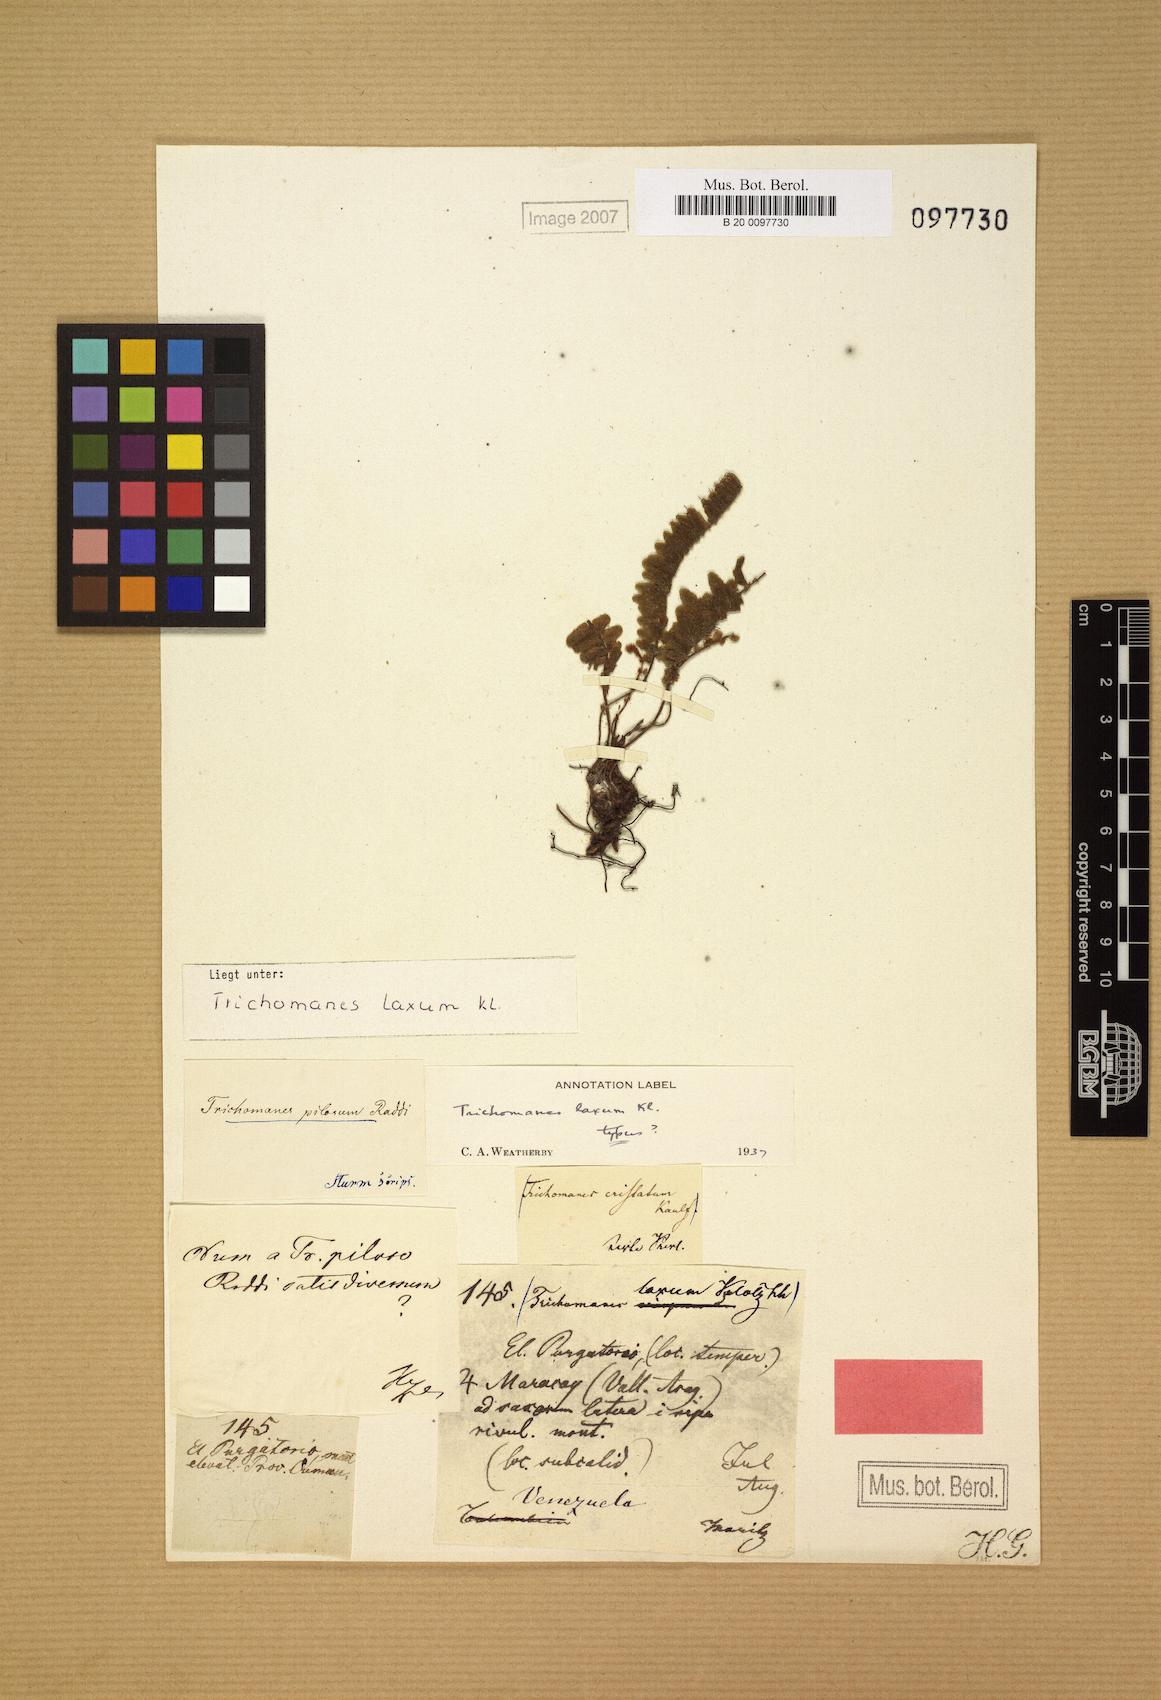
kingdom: Plantae
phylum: Tracheophyta
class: Polypodiopsida
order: Hymenophyllales
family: Hymenophyllaceae
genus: Trichomanes
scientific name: Trichomanes pilosum
